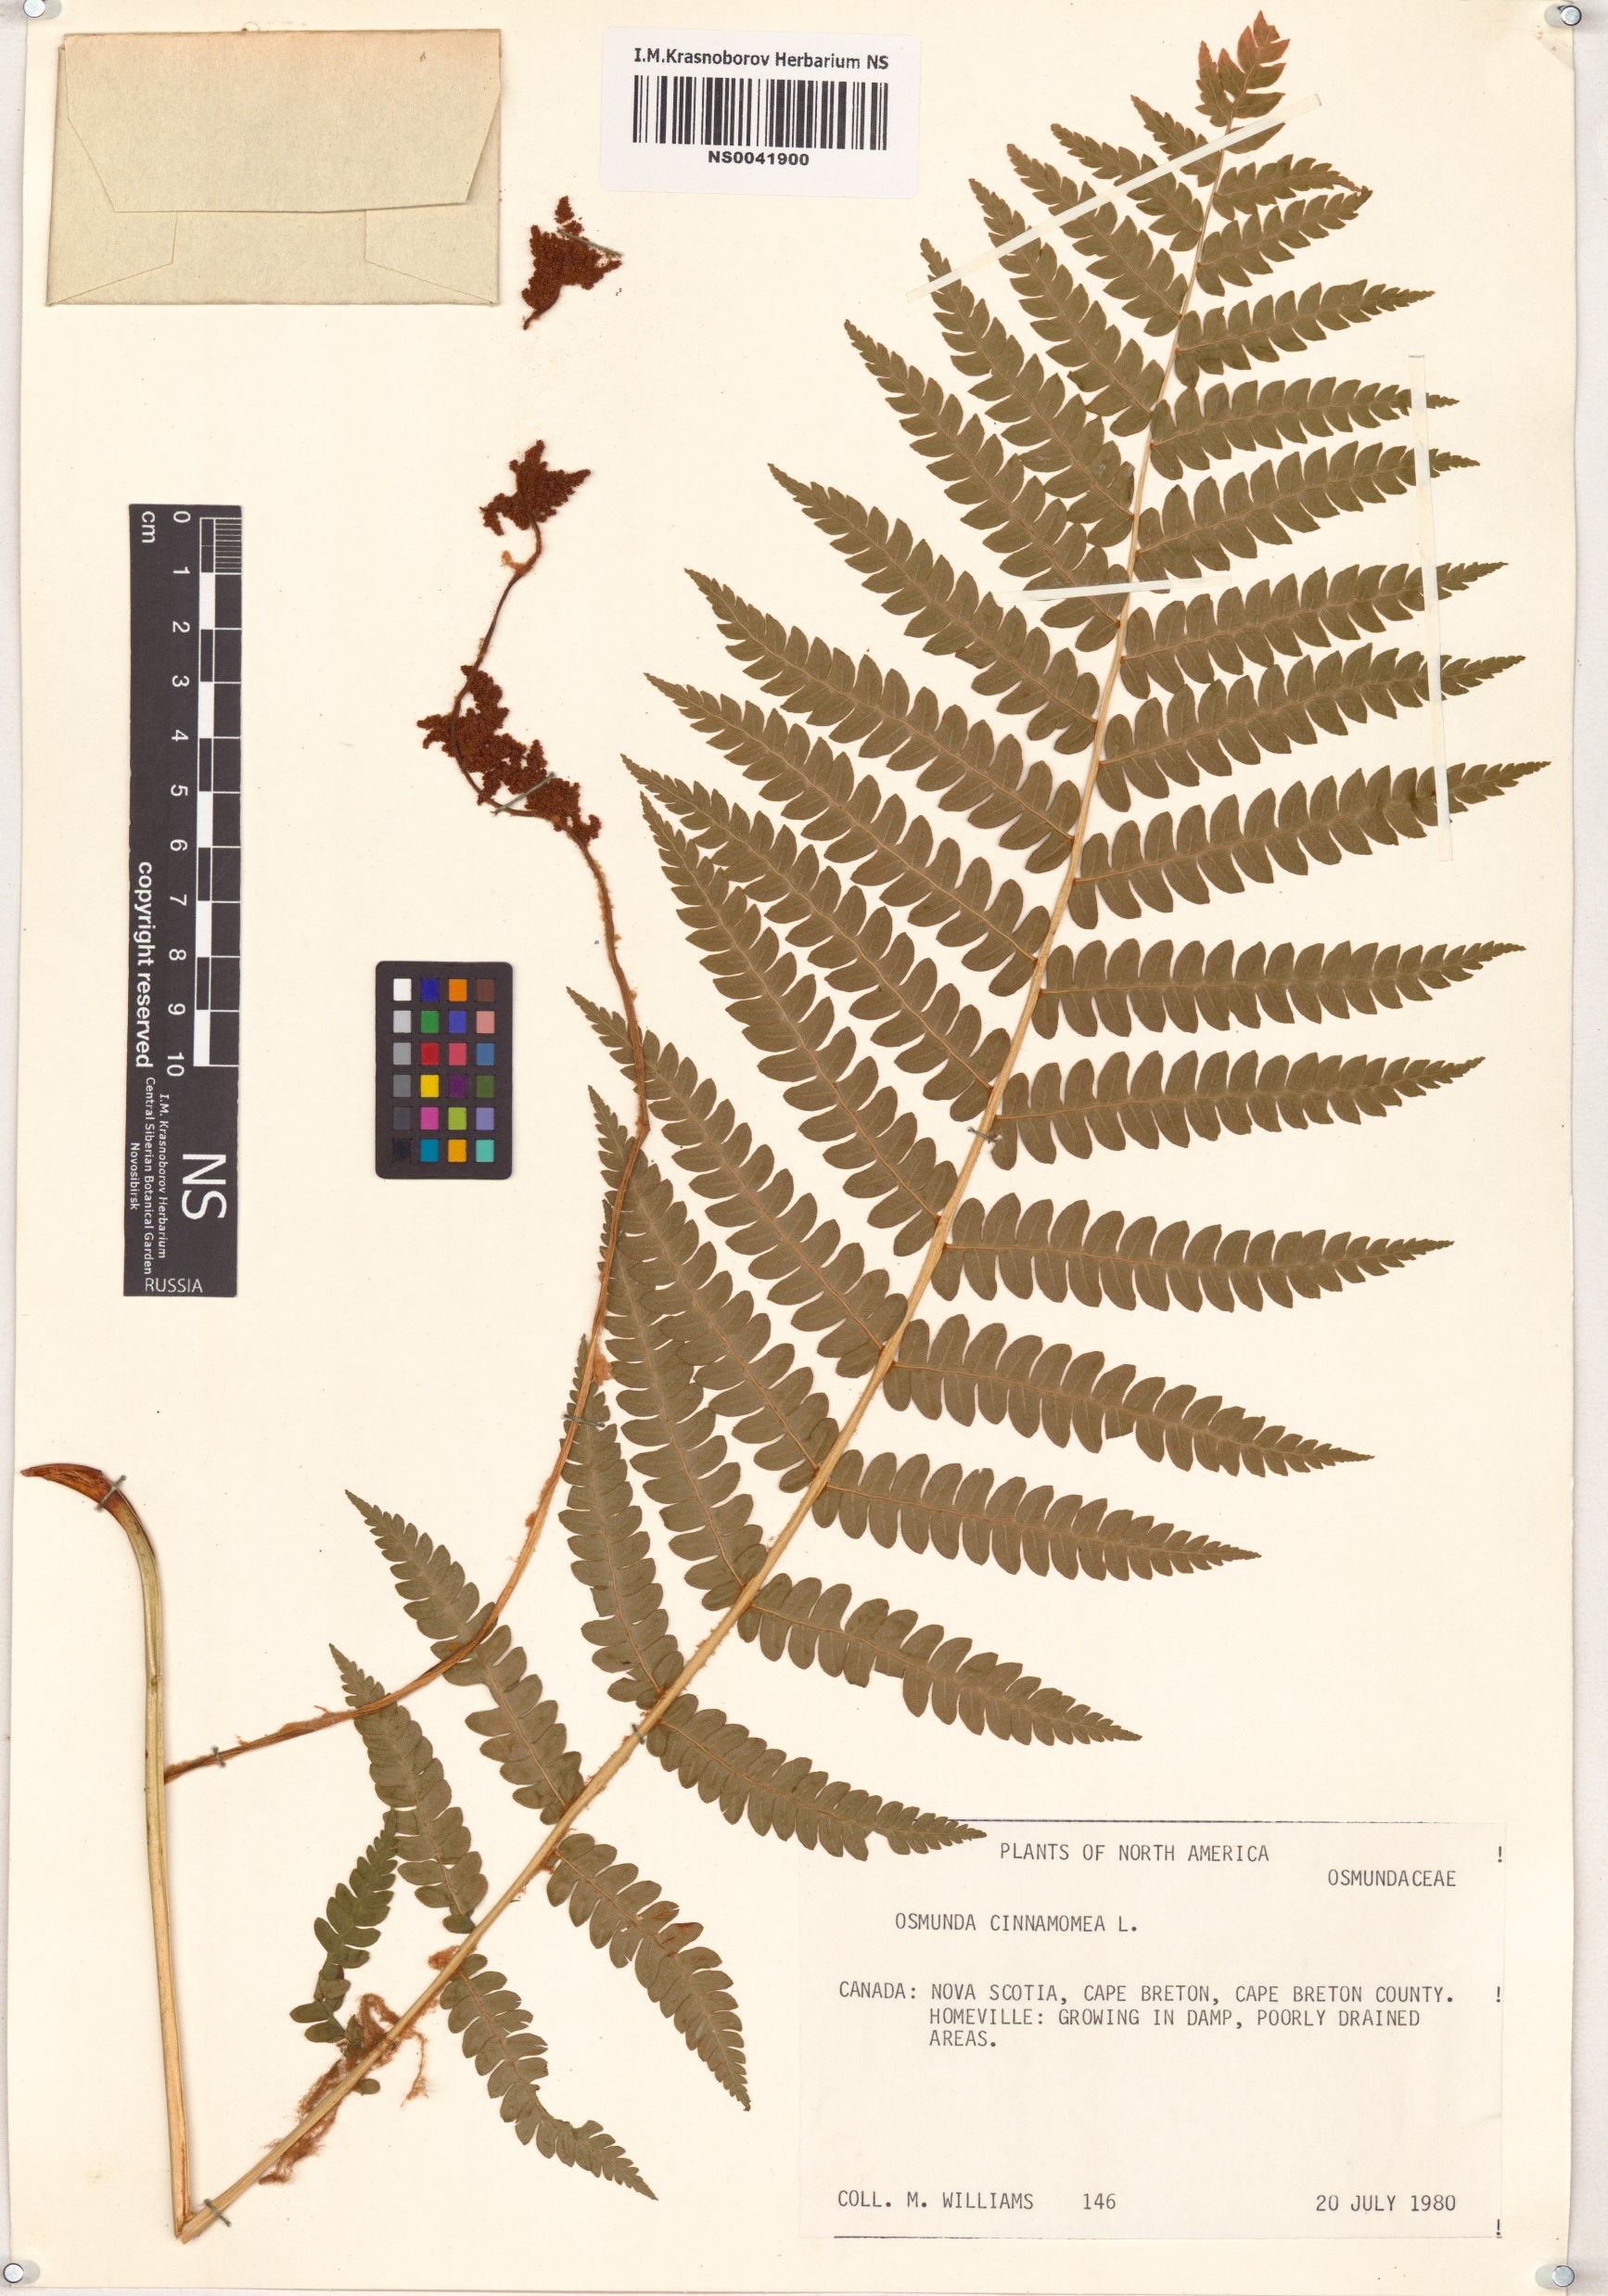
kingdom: Plantae
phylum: Tracheophyta
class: Polypodiopsida
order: Osmundales
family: Osmundaceae
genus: Osmundastrum
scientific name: Osmundastrum cinnamomeum
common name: Cinnamon fern
